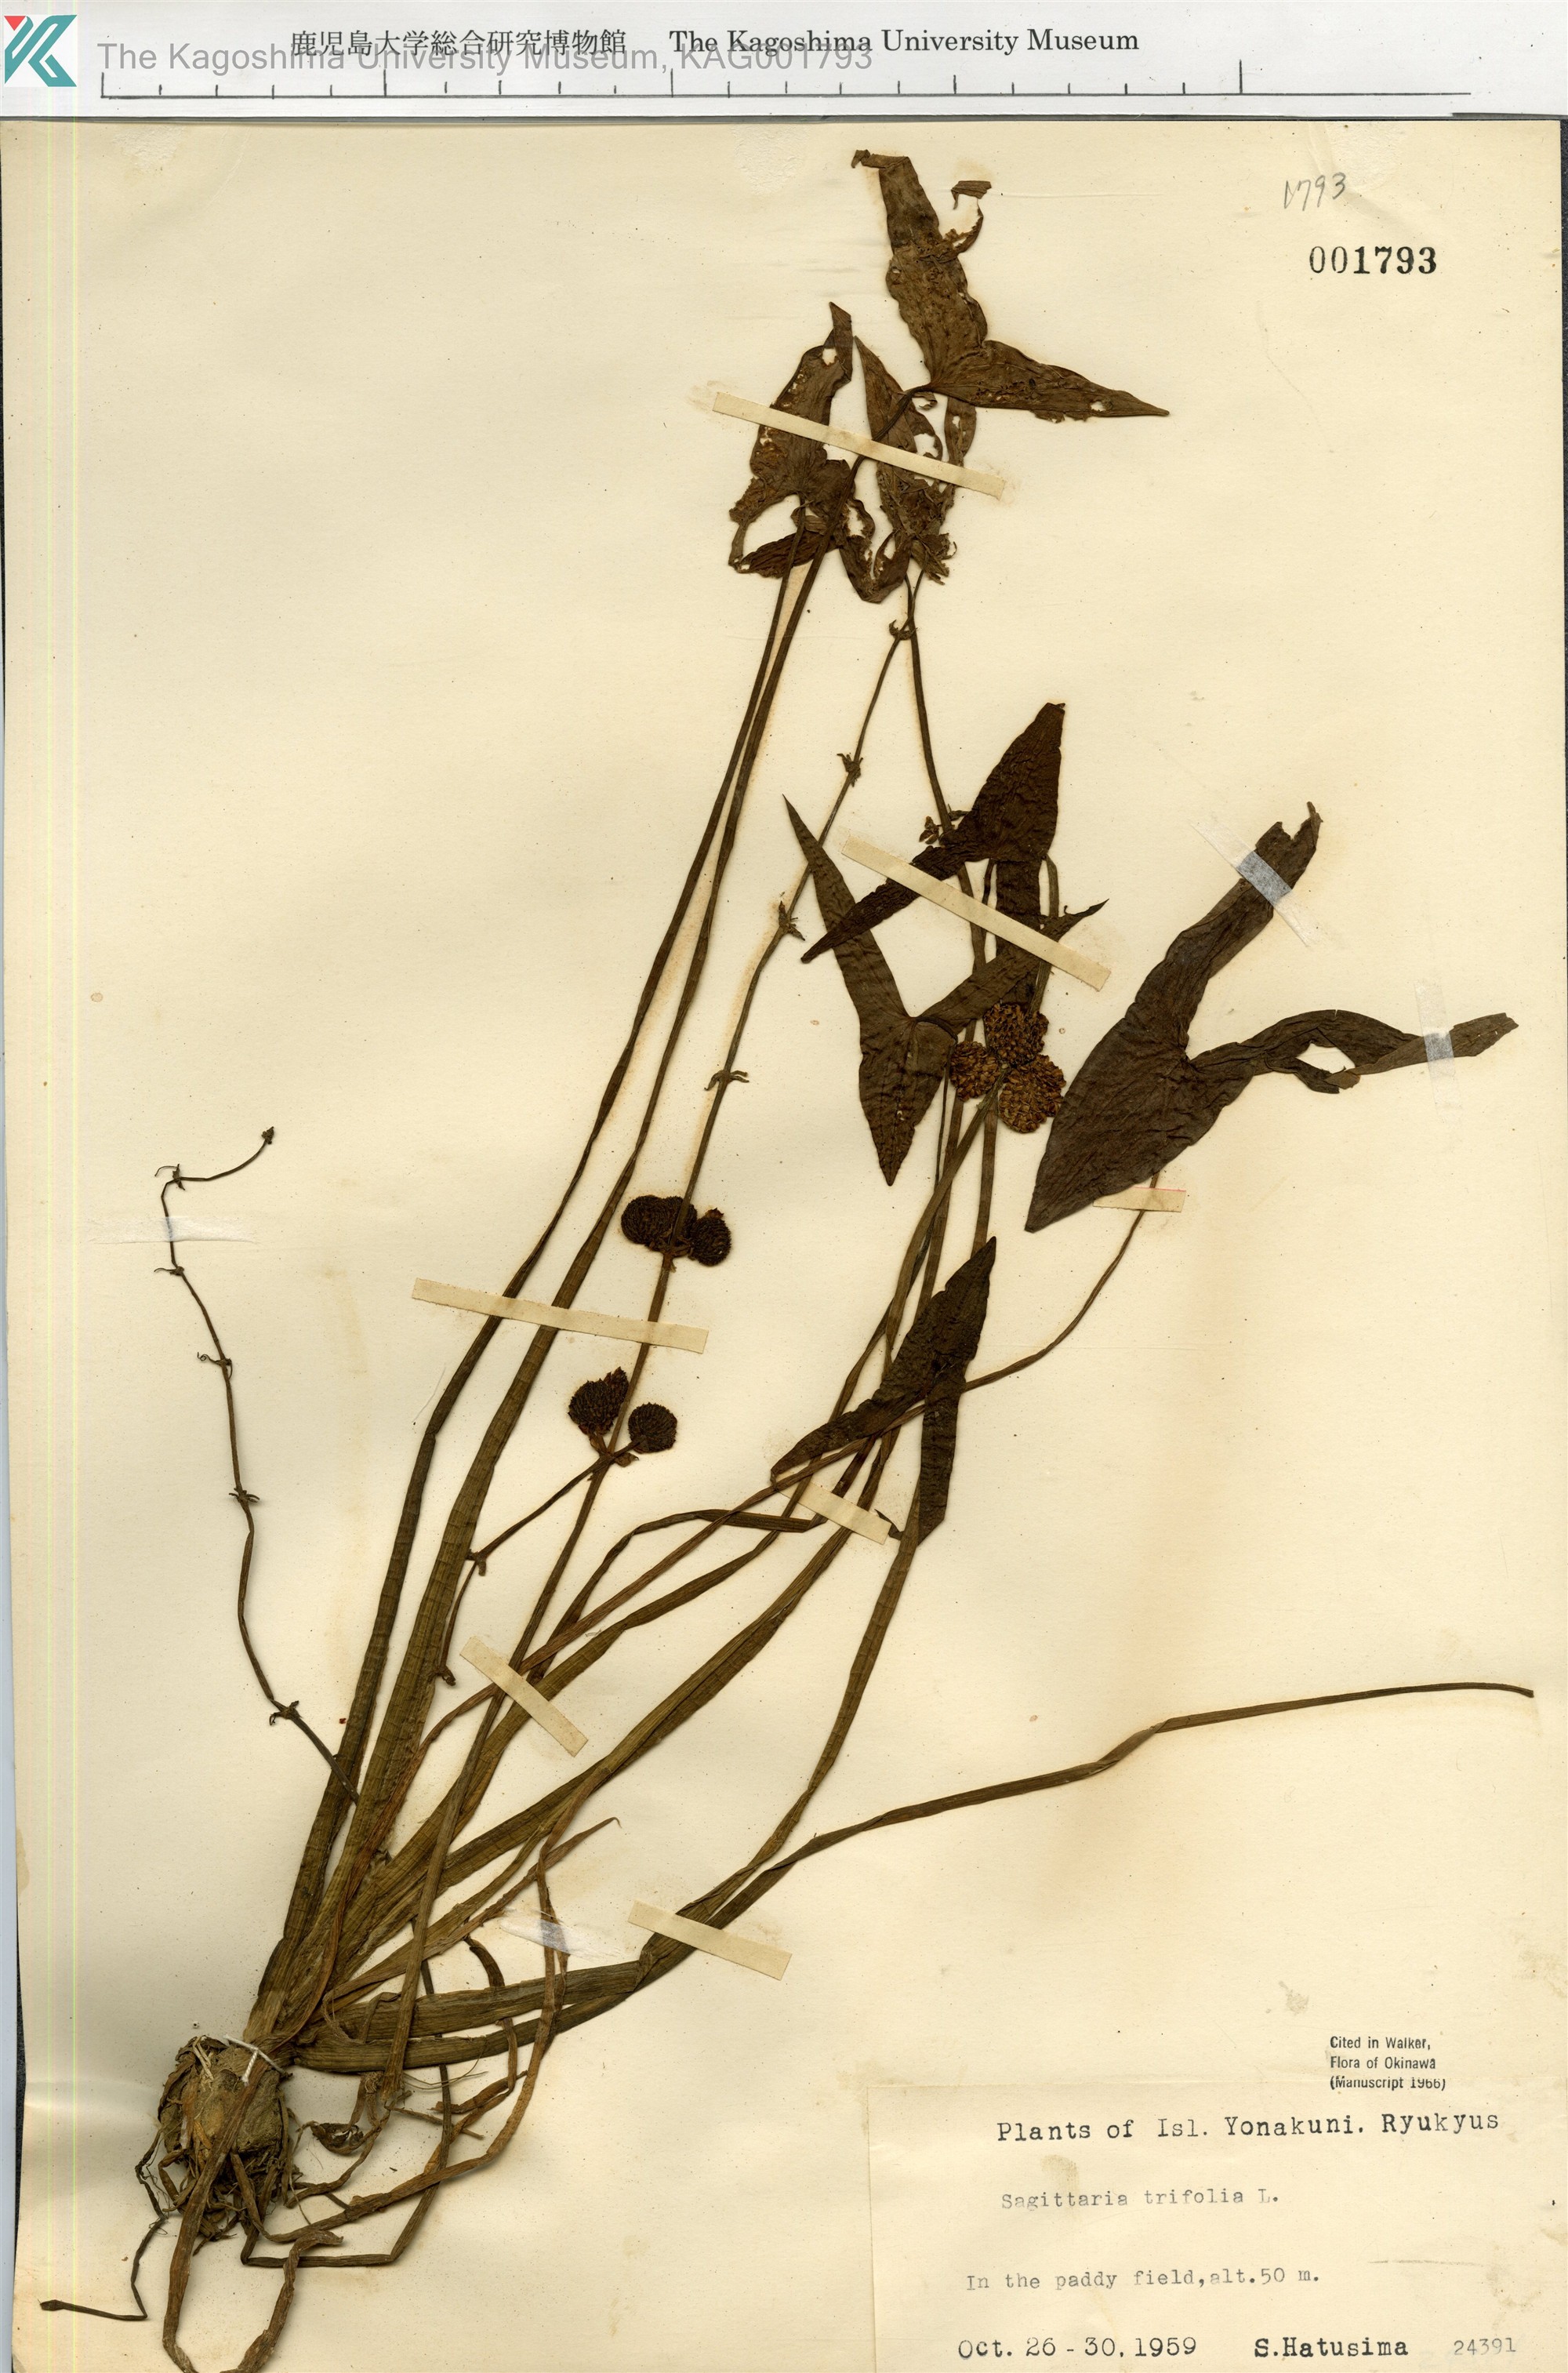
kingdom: Plantae
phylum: Tracheophyta
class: Liliopsida
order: Alismatales
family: Alismataceae
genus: Sagittaria
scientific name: Sagittaria trifolia
